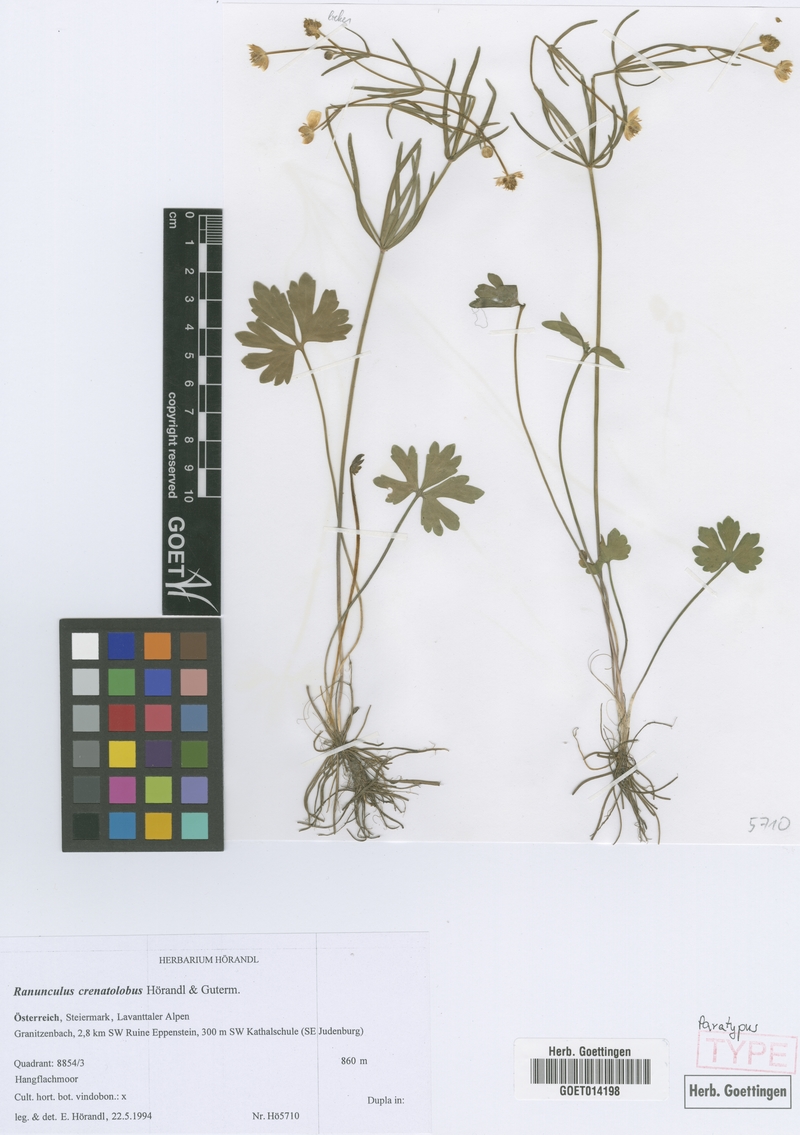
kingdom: Plantae
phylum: Tracheophyta
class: Magnoliopsida
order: Ranunculales
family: Ranunculaceae
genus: Ranunculus
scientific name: Ranunculus crenatolobus
